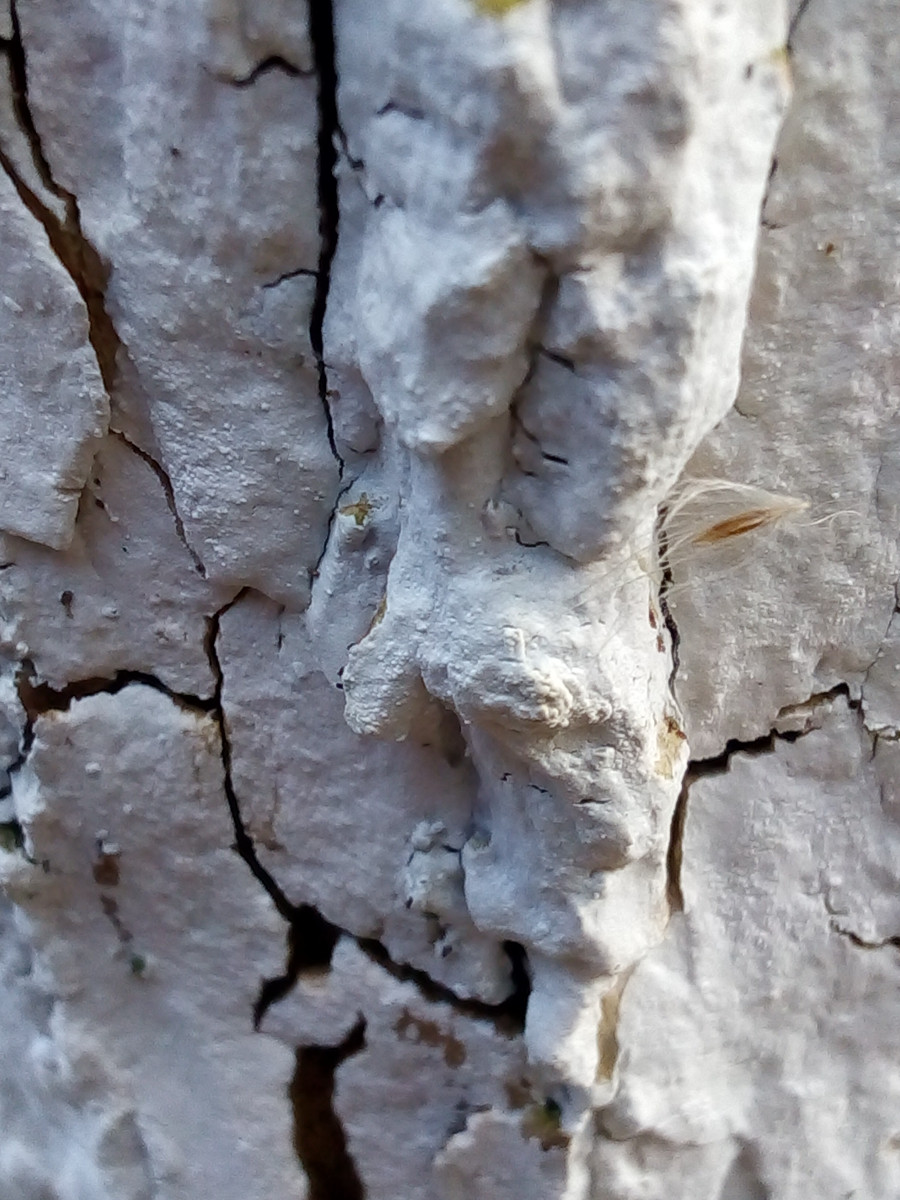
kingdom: Fungi
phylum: Basidiomycota
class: Agaricomycetes
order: Corticiales
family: Corticiaceae
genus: Lyomyces
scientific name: Lyomyces sambuci
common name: almindelig hyldehinde
